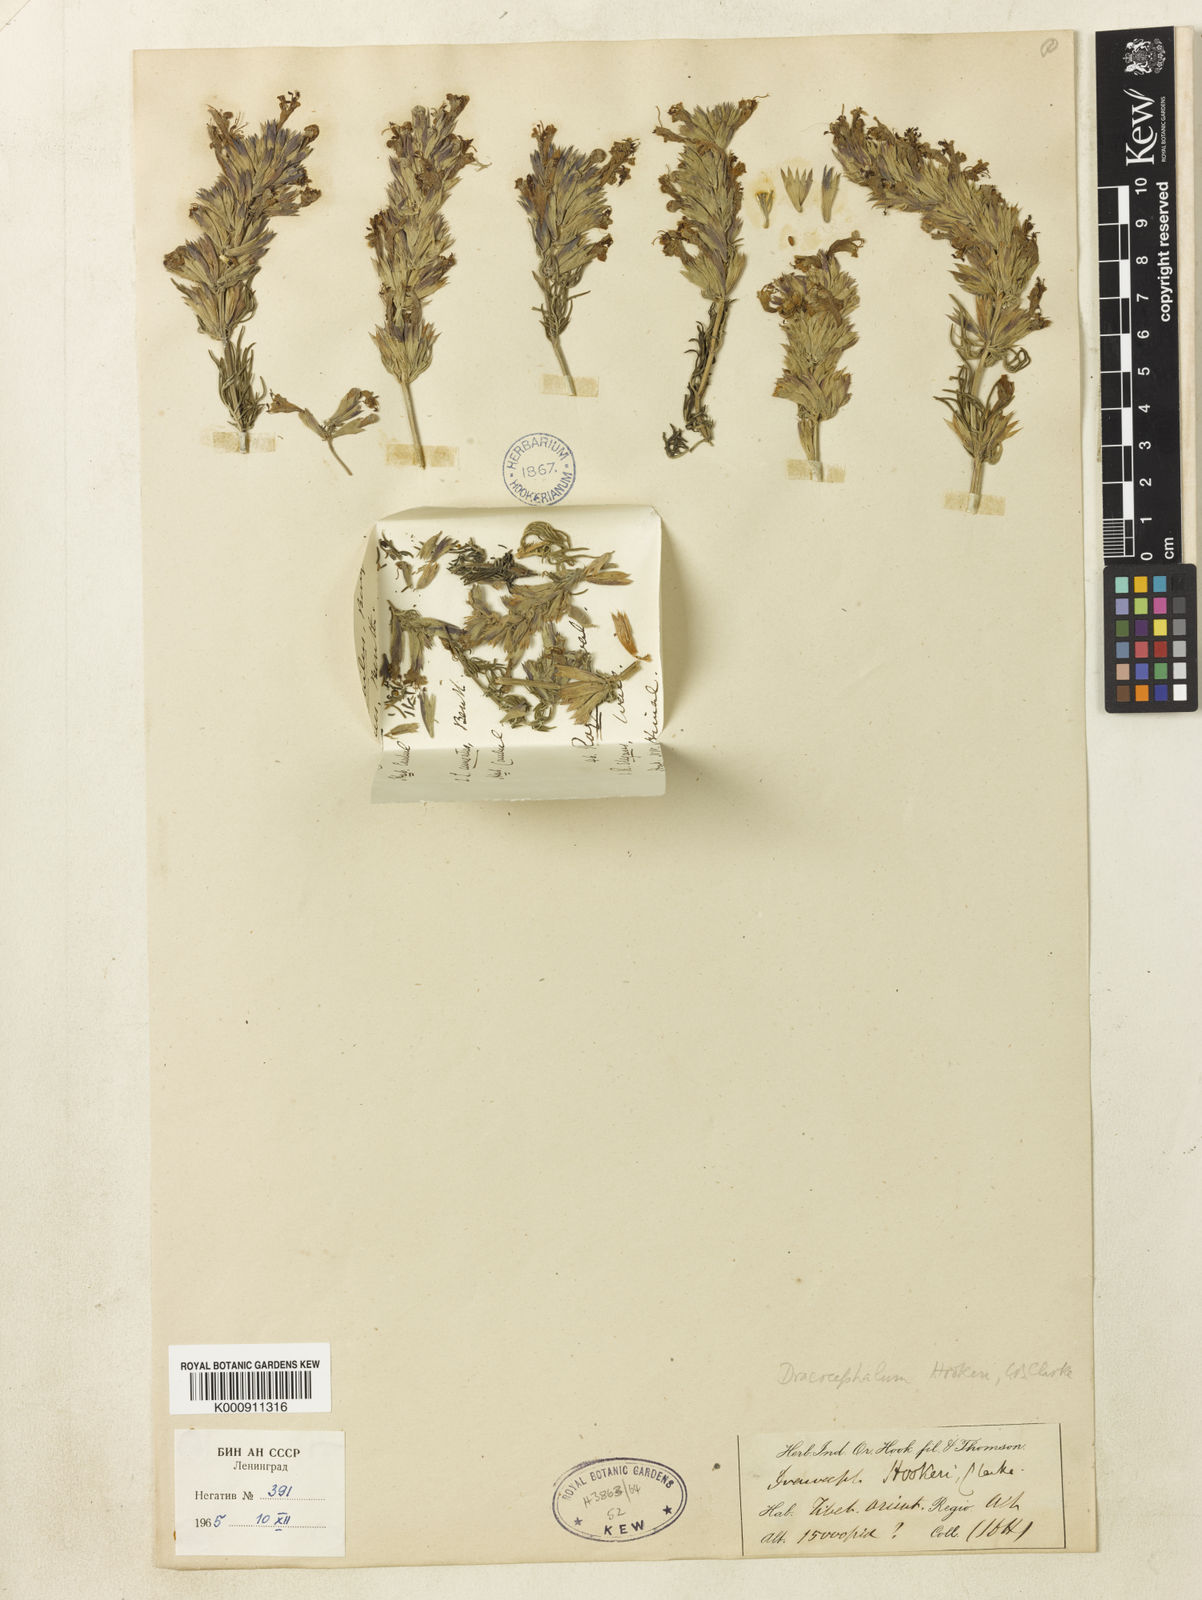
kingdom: Plantae
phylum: Tracheophyta
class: Magnoliopsida
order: Lamiales
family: Lamiaceae
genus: Dracocephalum
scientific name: Dracocephalum tanguticum
